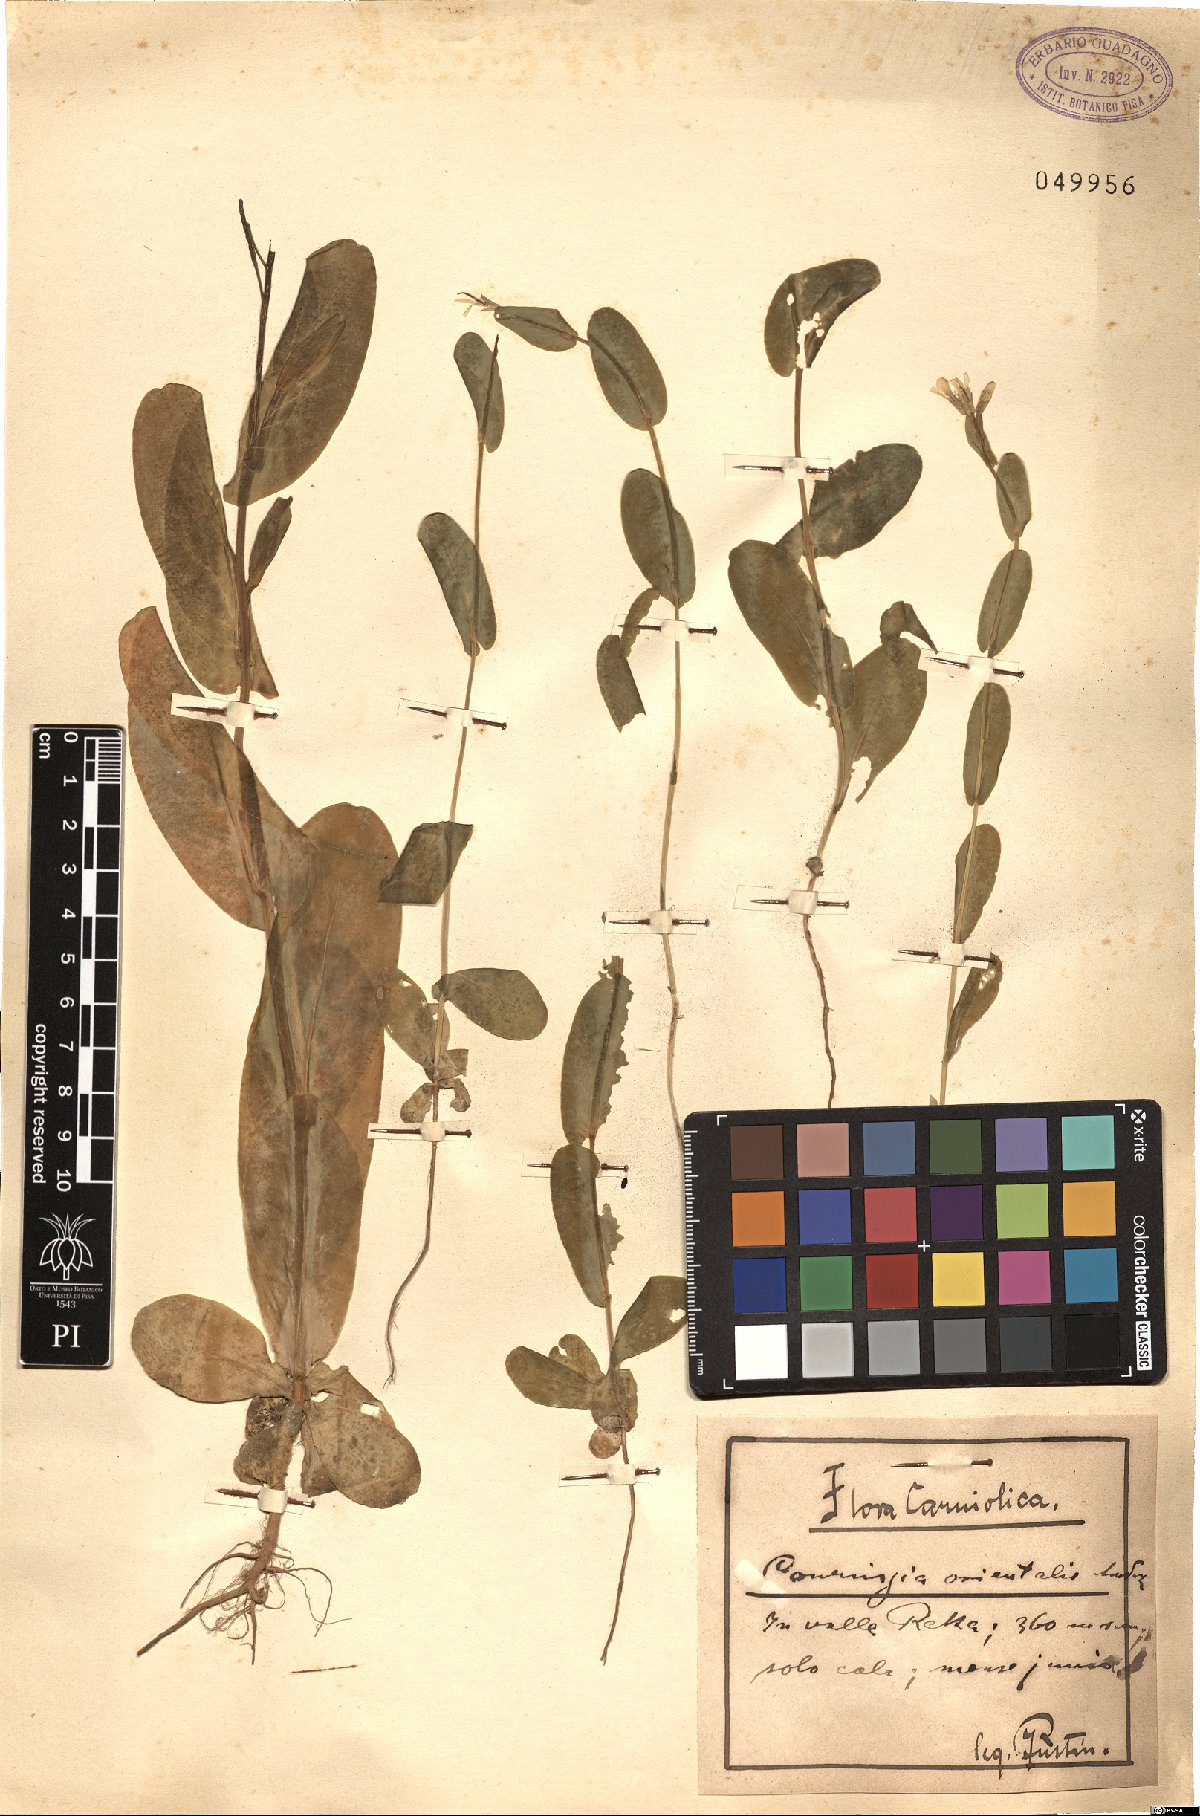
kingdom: Plantae
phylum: Tracheophyta
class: Magnoliopsida
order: Brassicales
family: Brassicaceae
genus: Conringia
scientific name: Conringia orientalis
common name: Hare's ear mustard
